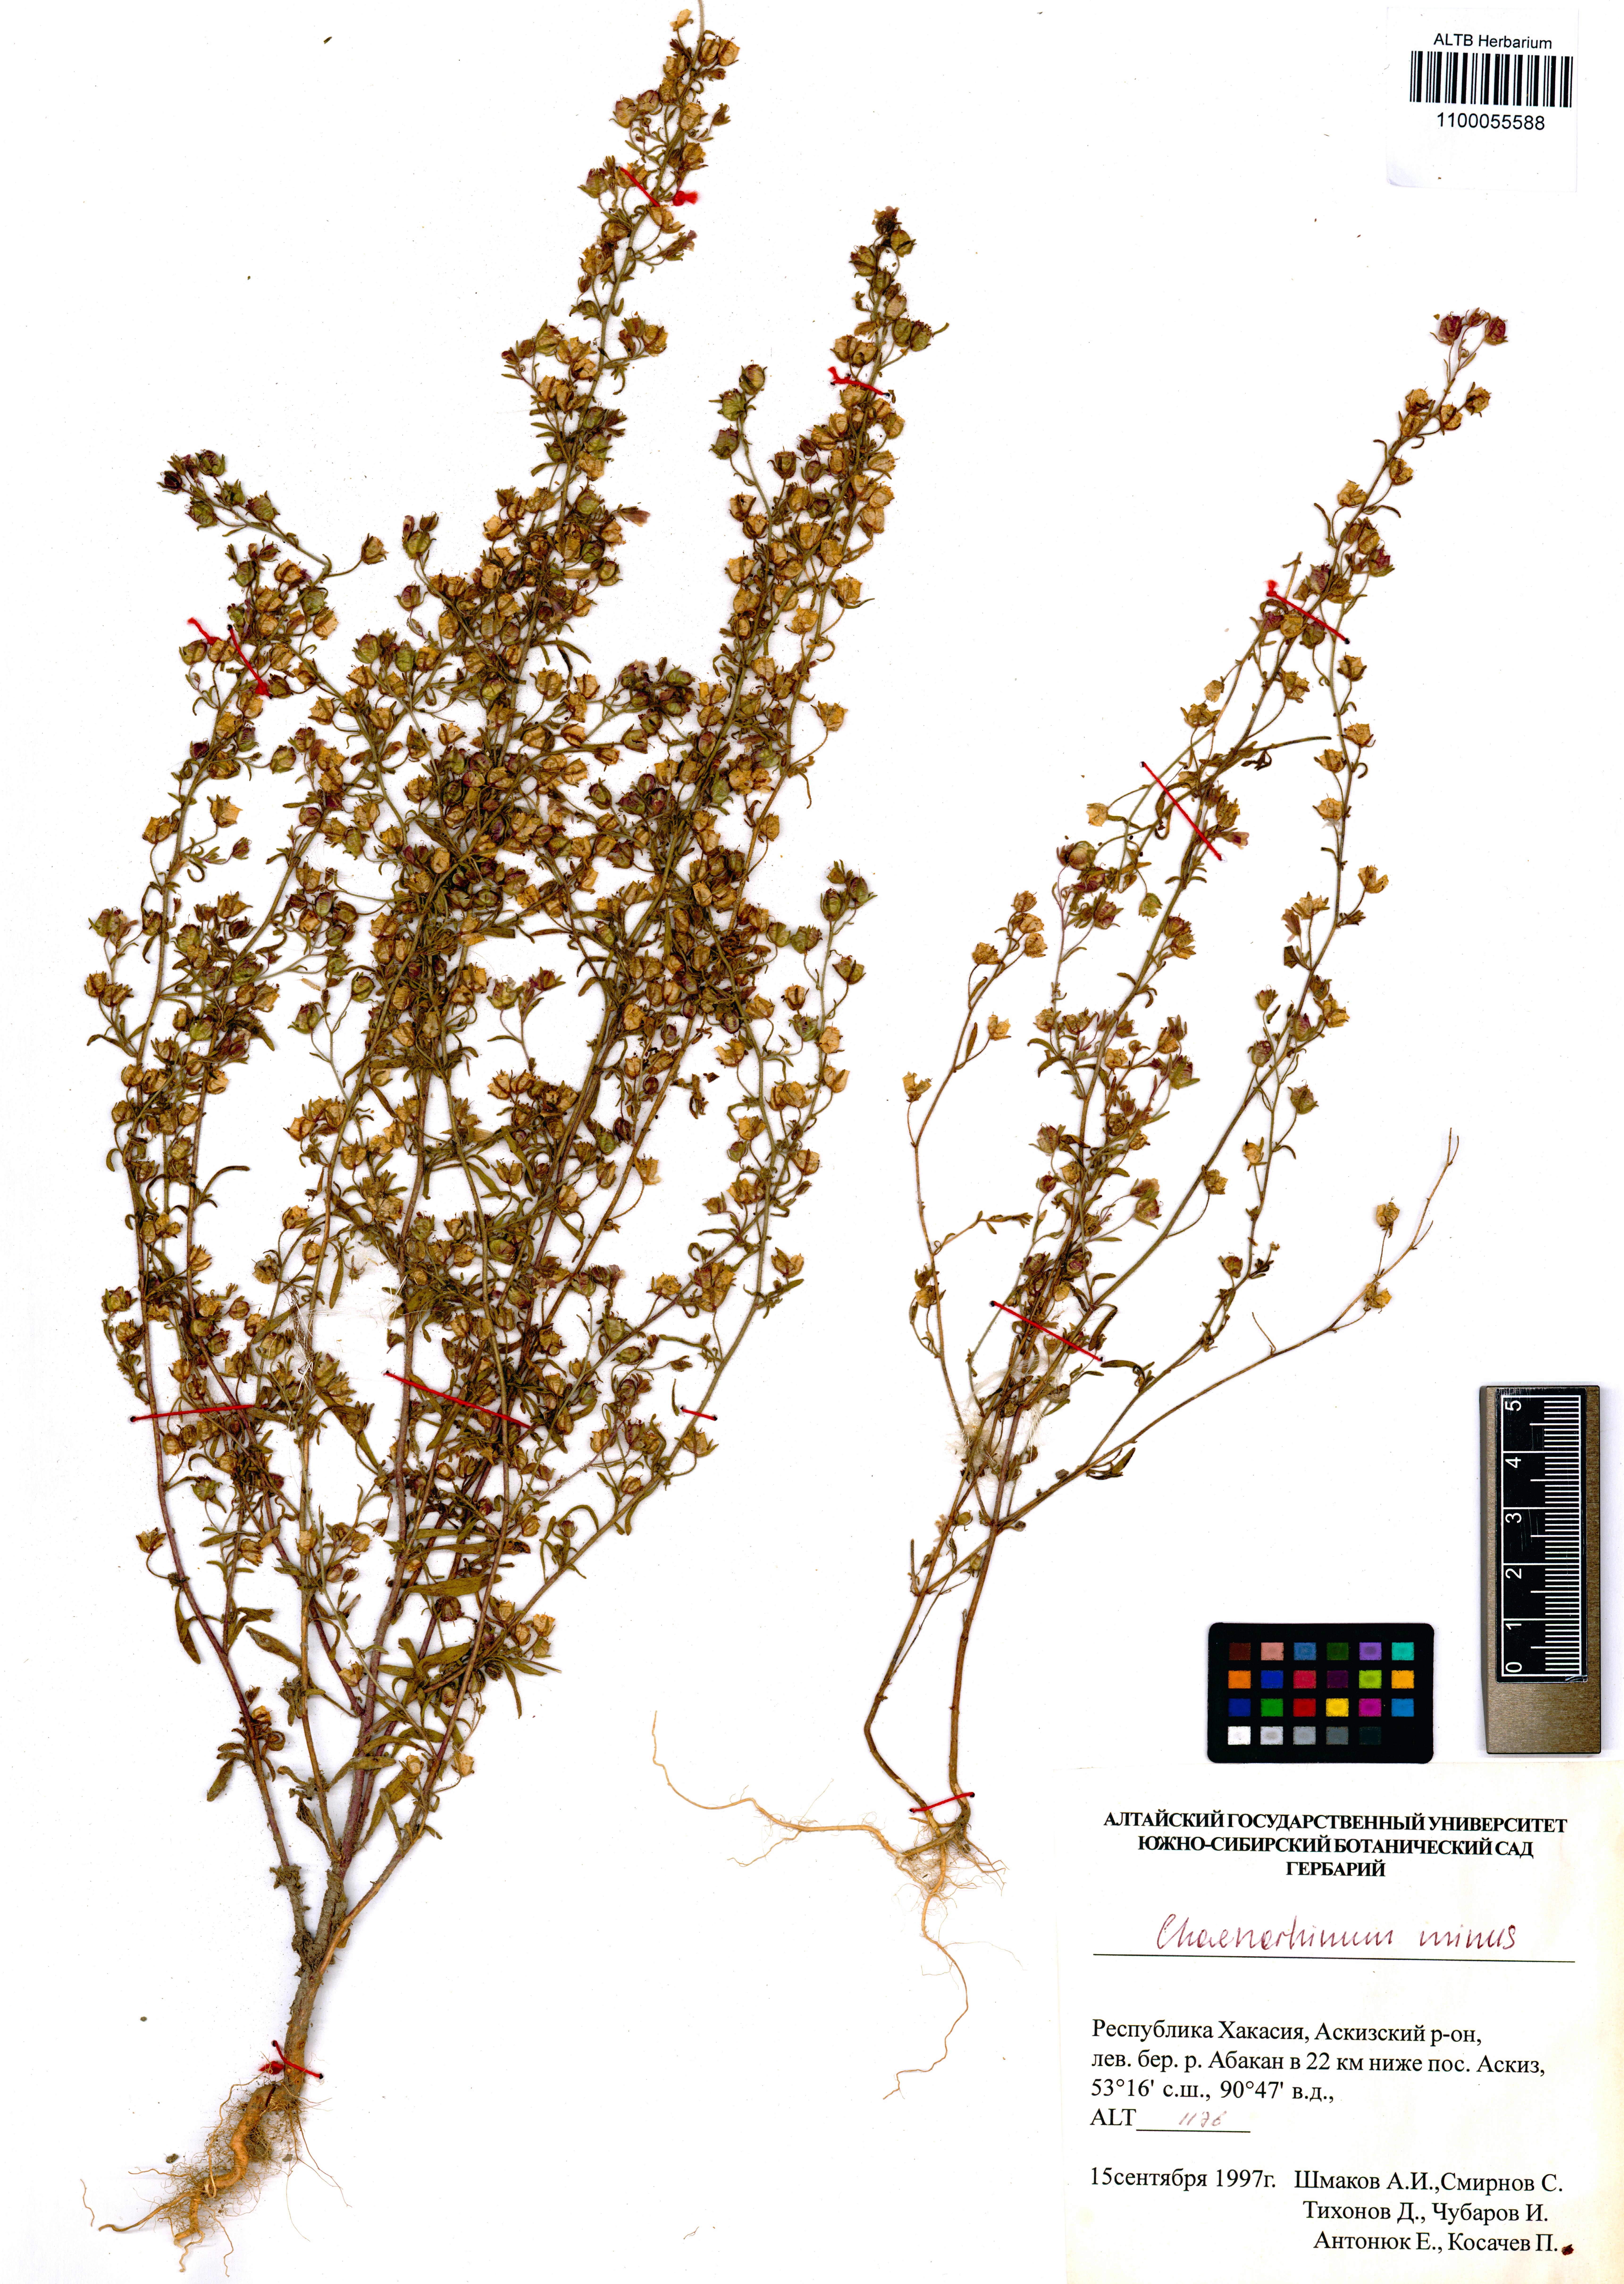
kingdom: Plantae
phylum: Tracheophyta
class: Magnoliopsida
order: Lamiales
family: Plantaginaceae
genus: Chaenorhinum
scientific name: Chaenorhinum minus
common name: Dwarf snapdragon
